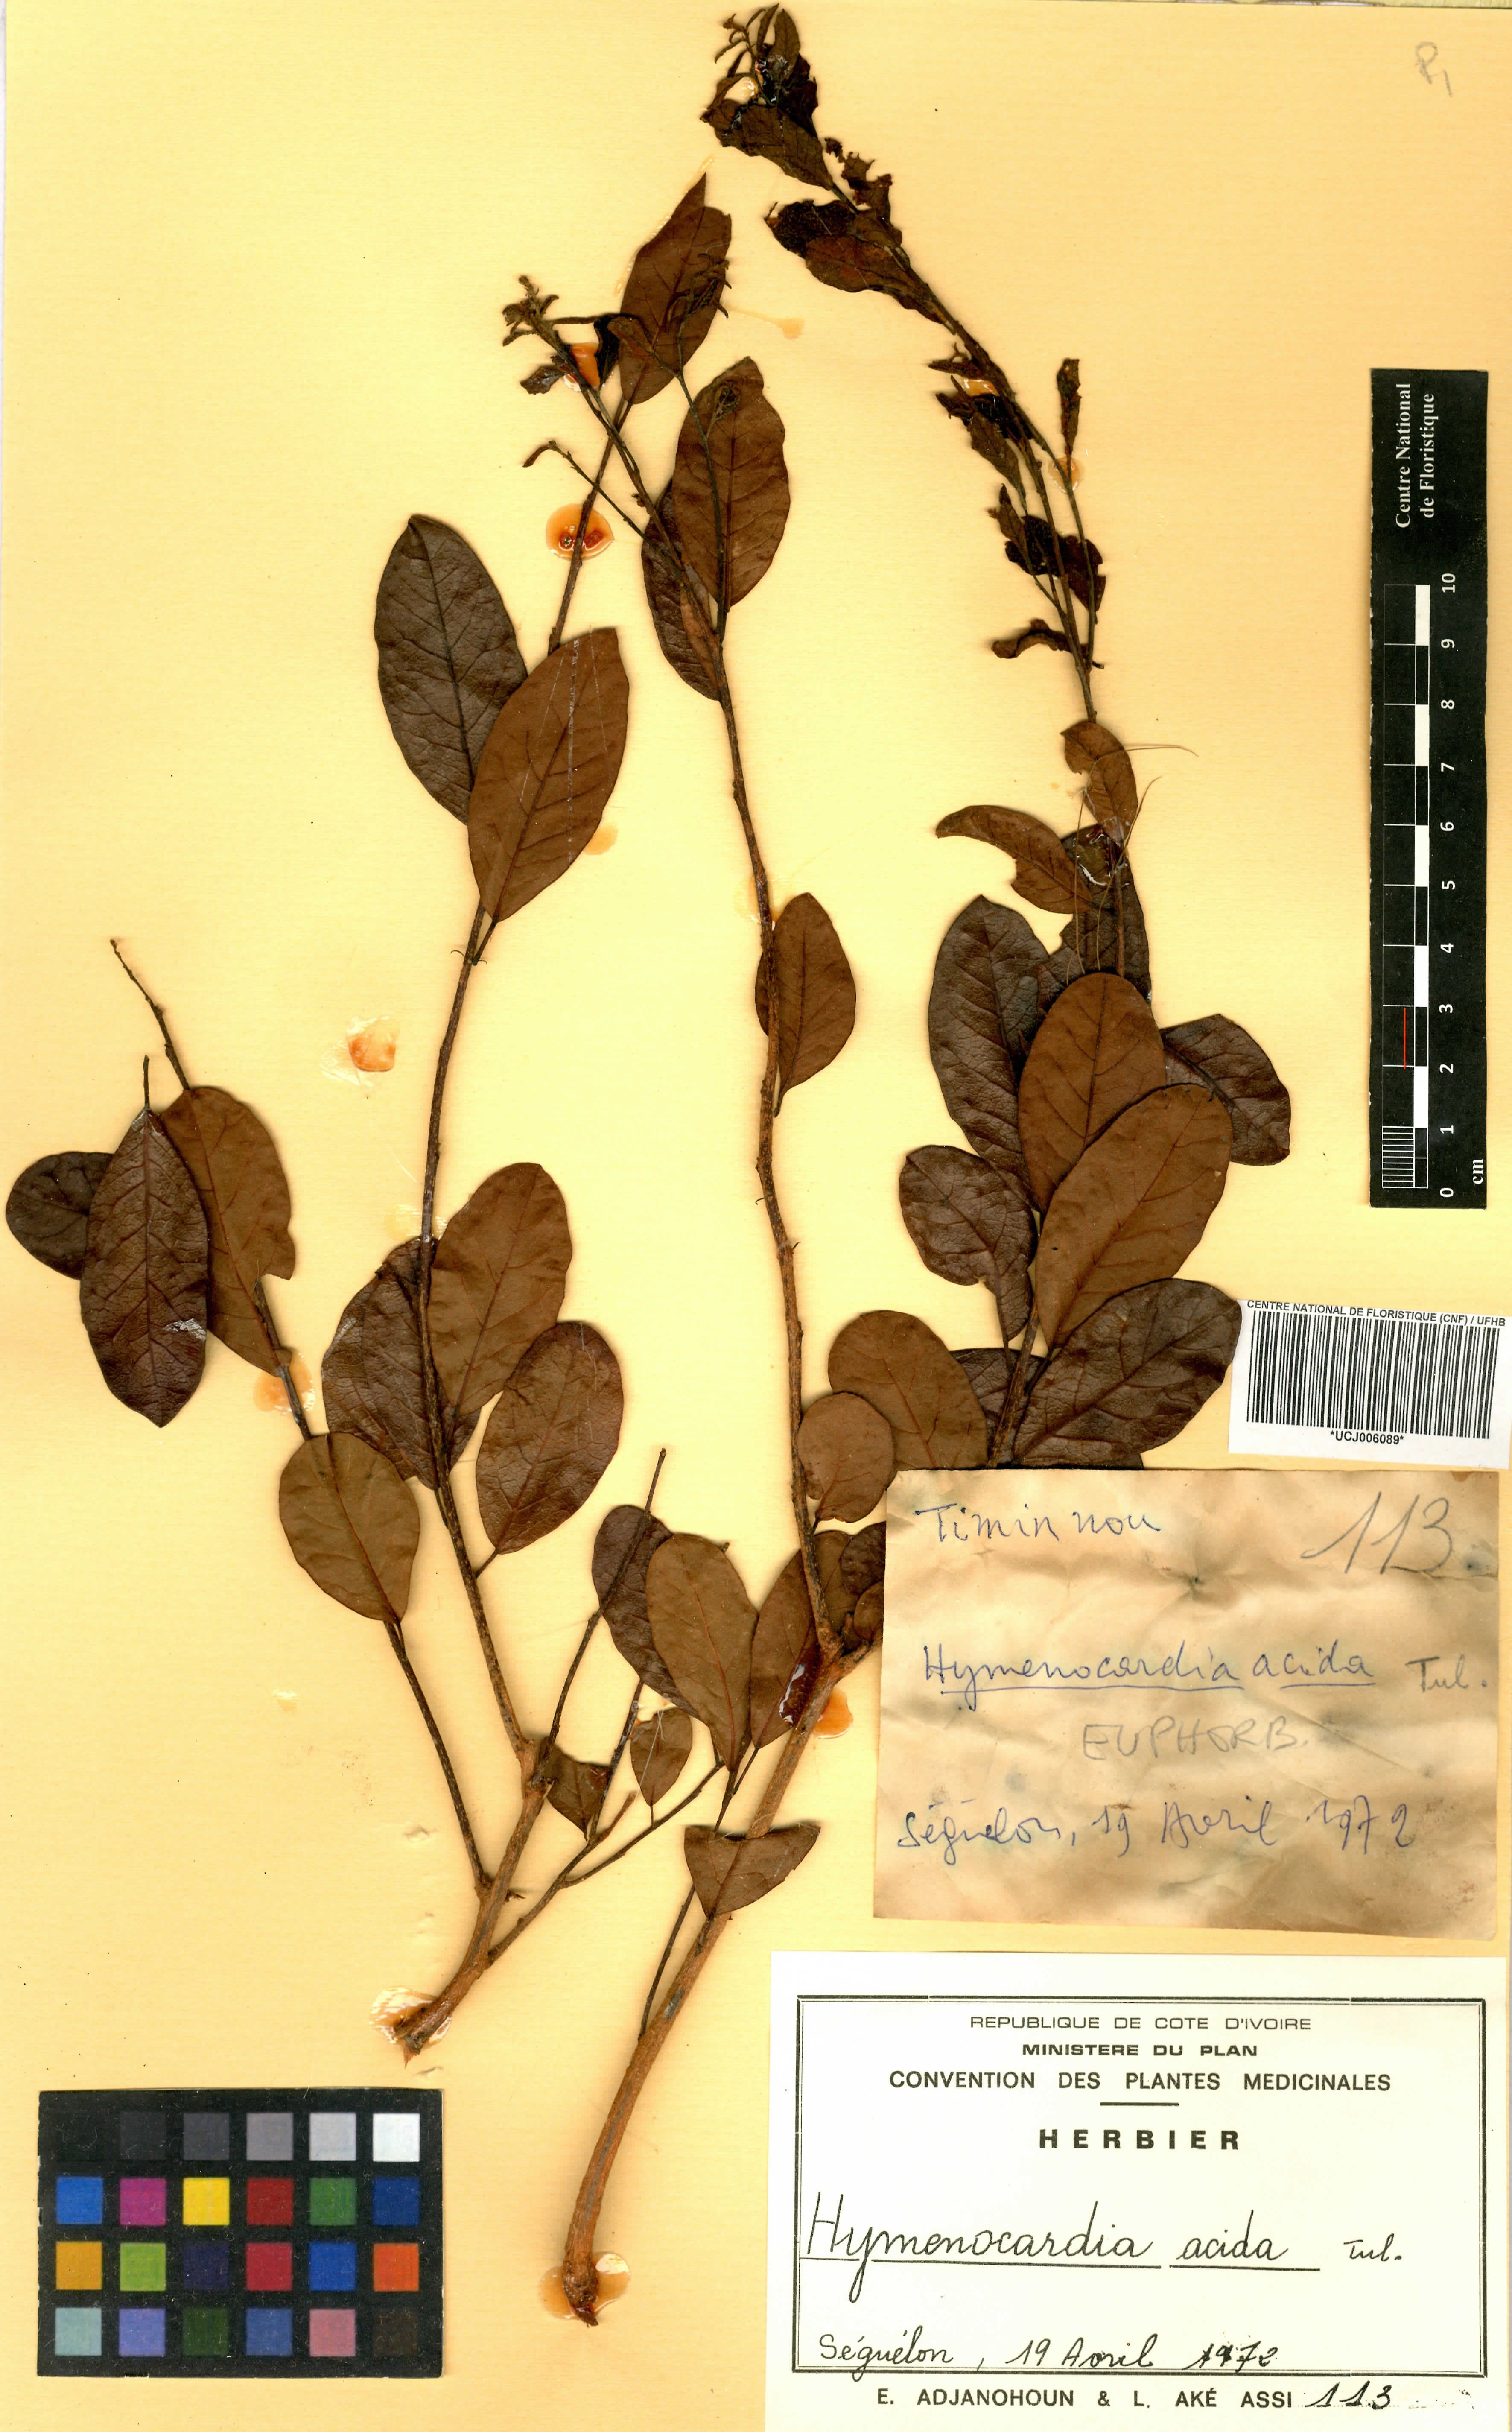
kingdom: Plantae
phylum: Tracheophyta
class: Magnoliopsida
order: Malpighiales
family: Phyllanthaceae
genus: Hymenocardia
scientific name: Hymenocardia acida
